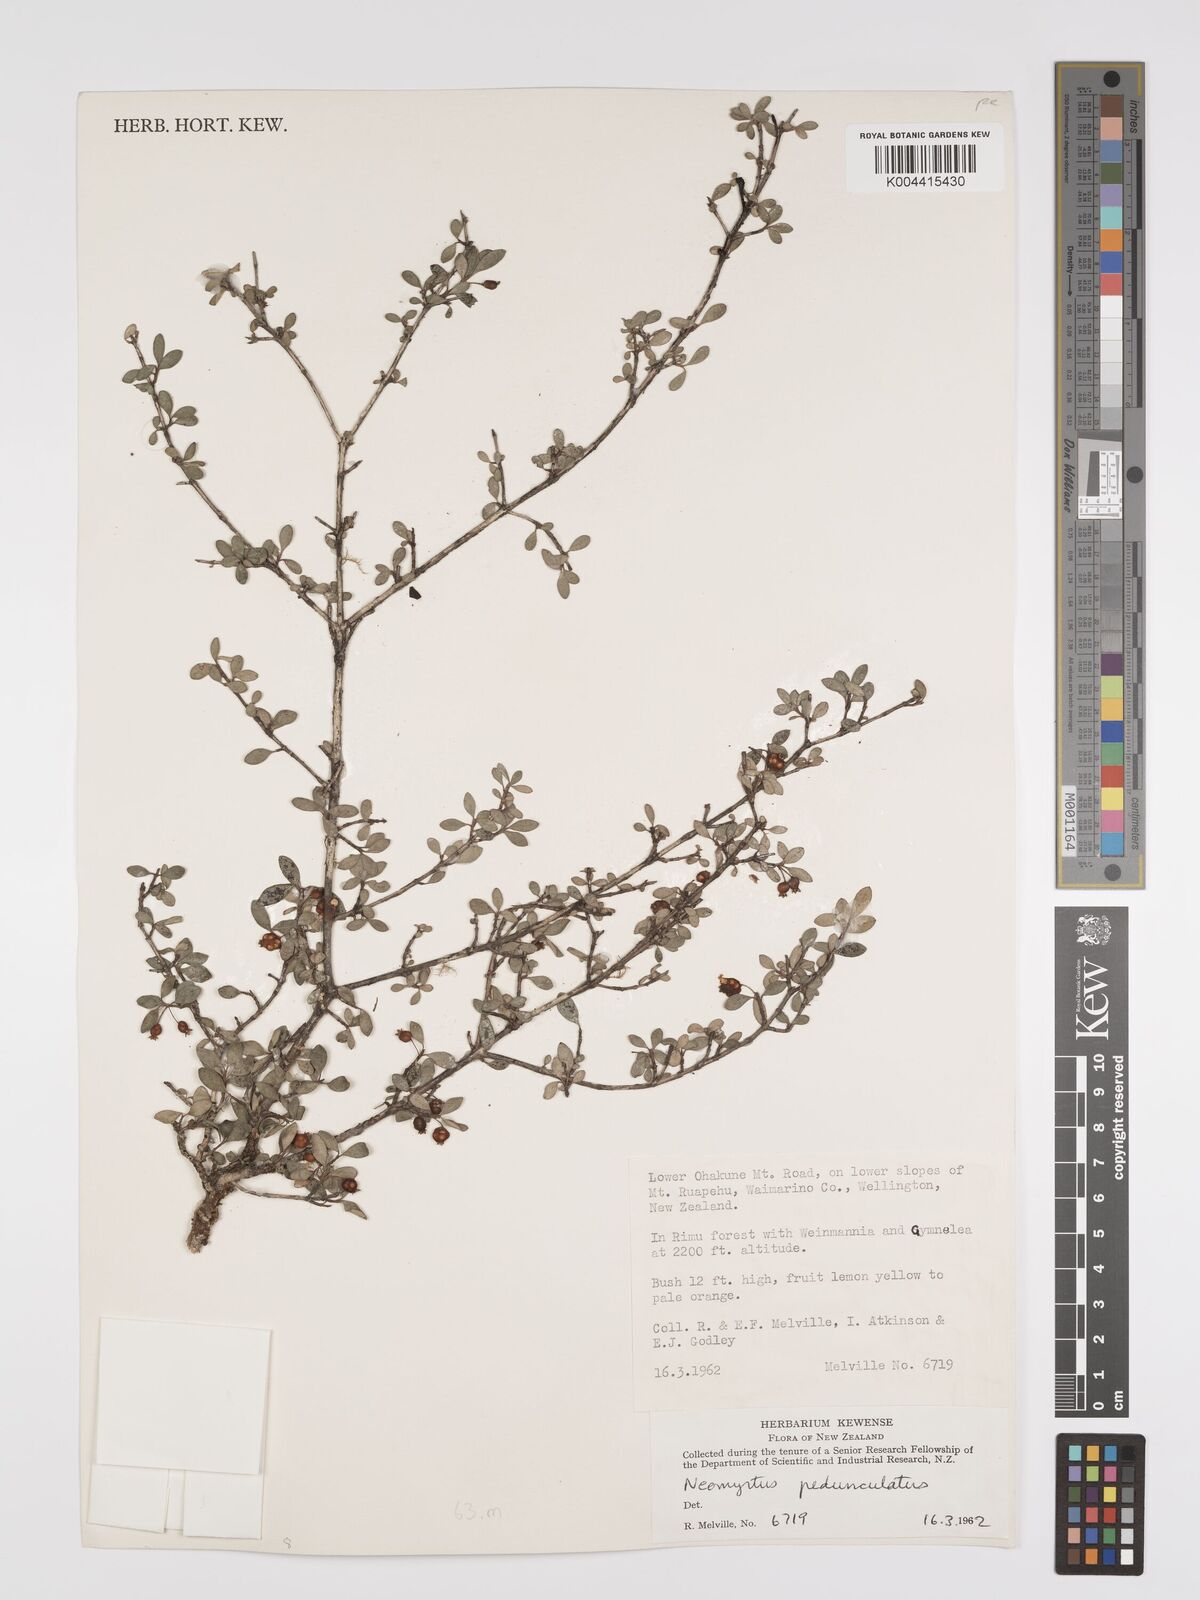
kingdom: Plantae
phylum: Tracheophyta
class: Magnoliopsida
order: Myrtales
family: Myrtaceae
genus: Neomyrtus
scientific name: Neomyrtus pedunculata
